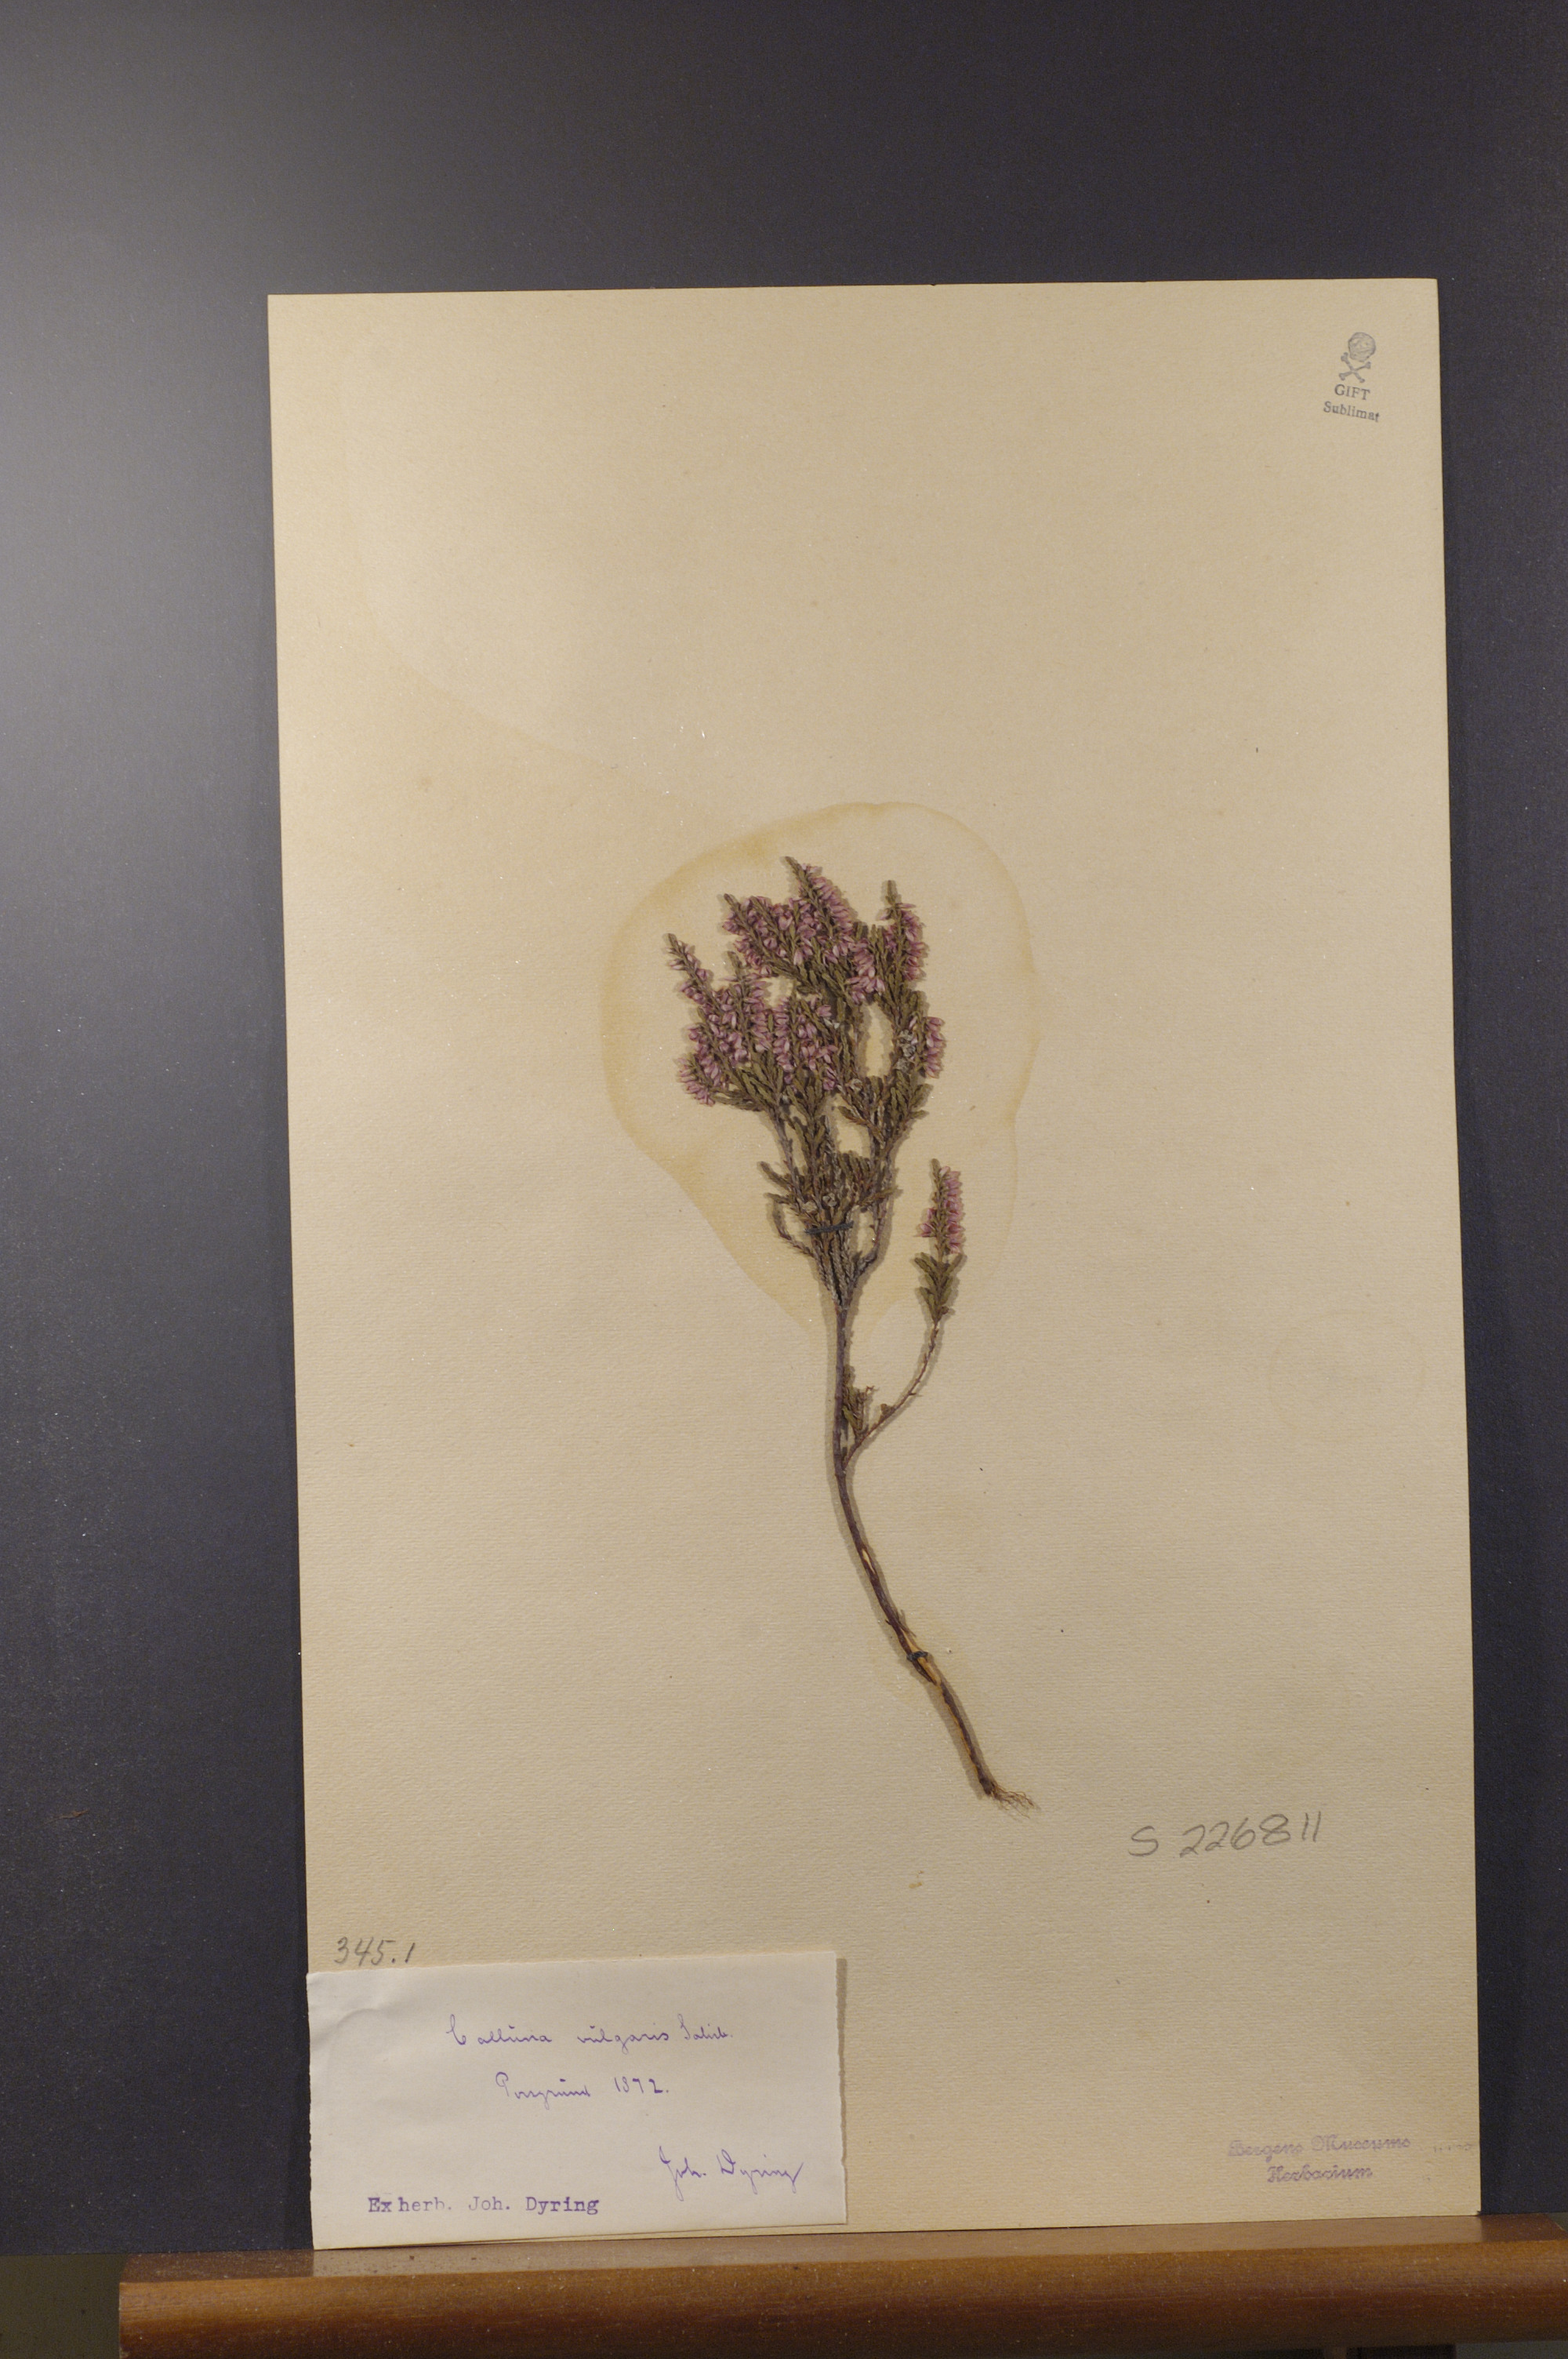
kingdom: Plantae
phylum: Tracheophyta
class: Magnoliopsida
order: Ericales
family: Ericaceae
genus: Calluna
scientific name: Calluna vulgaris
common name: Heather
